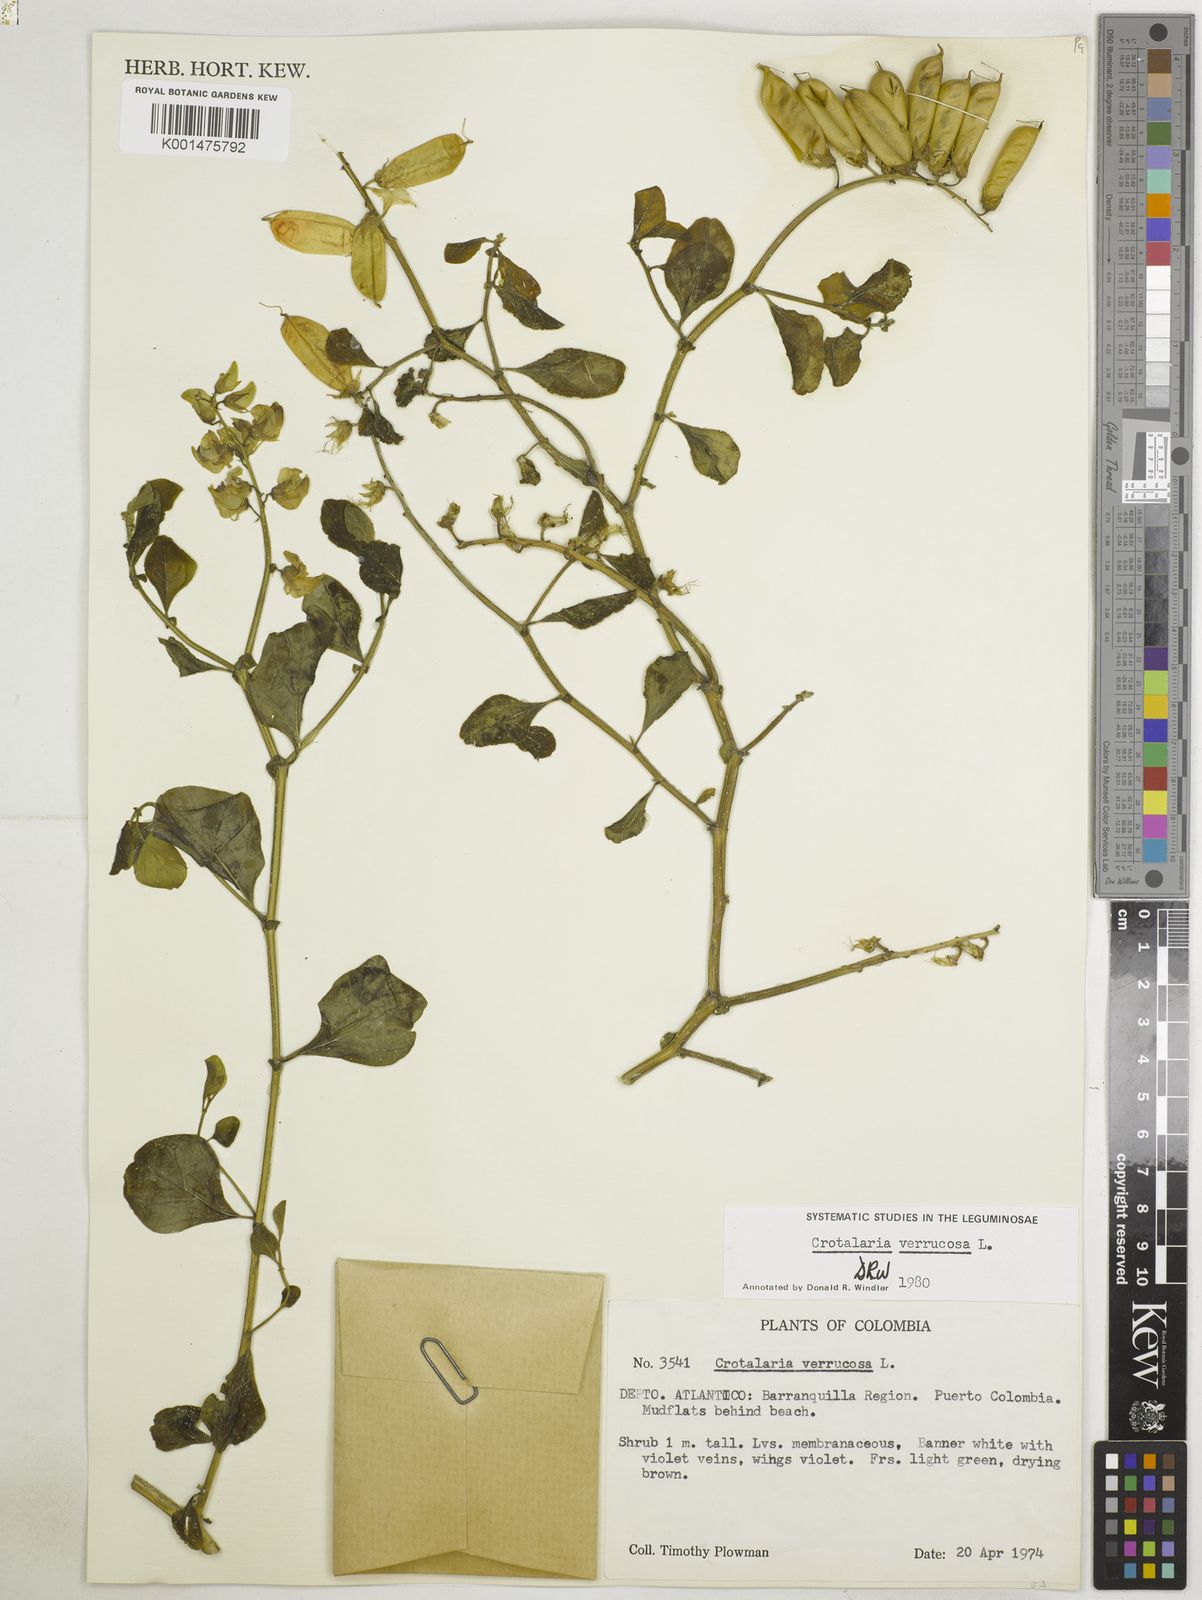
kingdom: Plantae
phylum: Tracheophyta
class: Magnoliopsida
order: Fabales
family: Fabaceae
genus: Crotalaria
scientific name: Crotalaria verrucosa
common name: Blue rattlesnake
